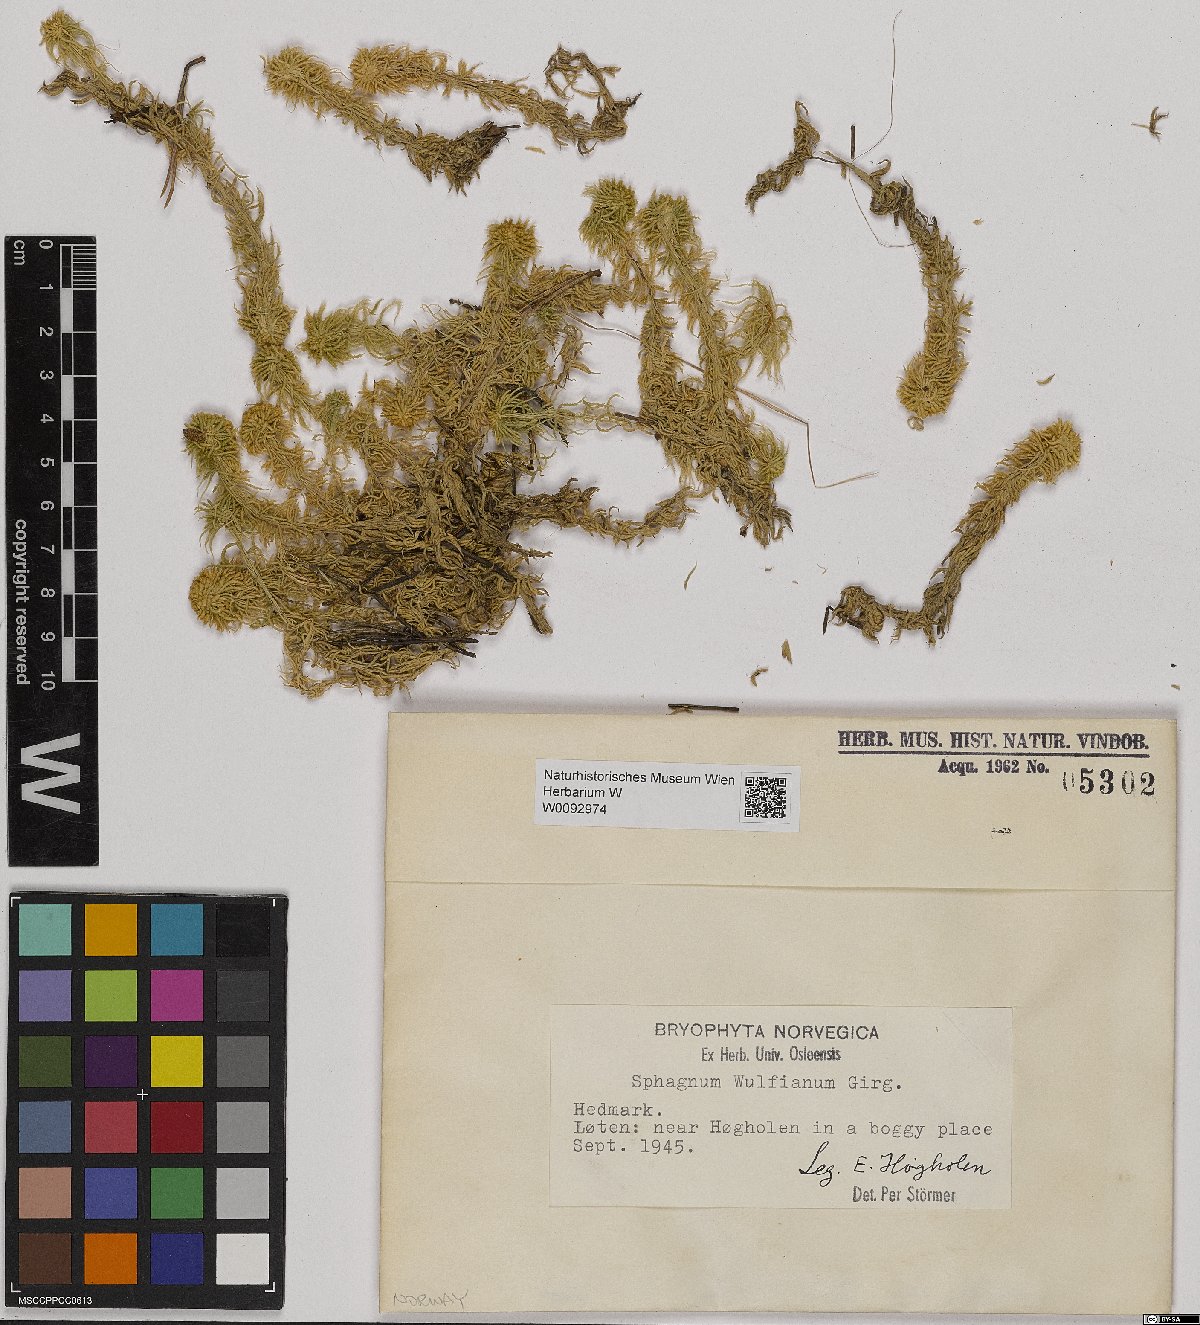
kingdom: Plantae
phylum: Bryophyta
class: Sphagnopsida
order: Sphagnales
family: Sphagnaceae
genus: Sphagnum
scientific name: Sphagnum wulfianum
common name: Wulf's peat moss
